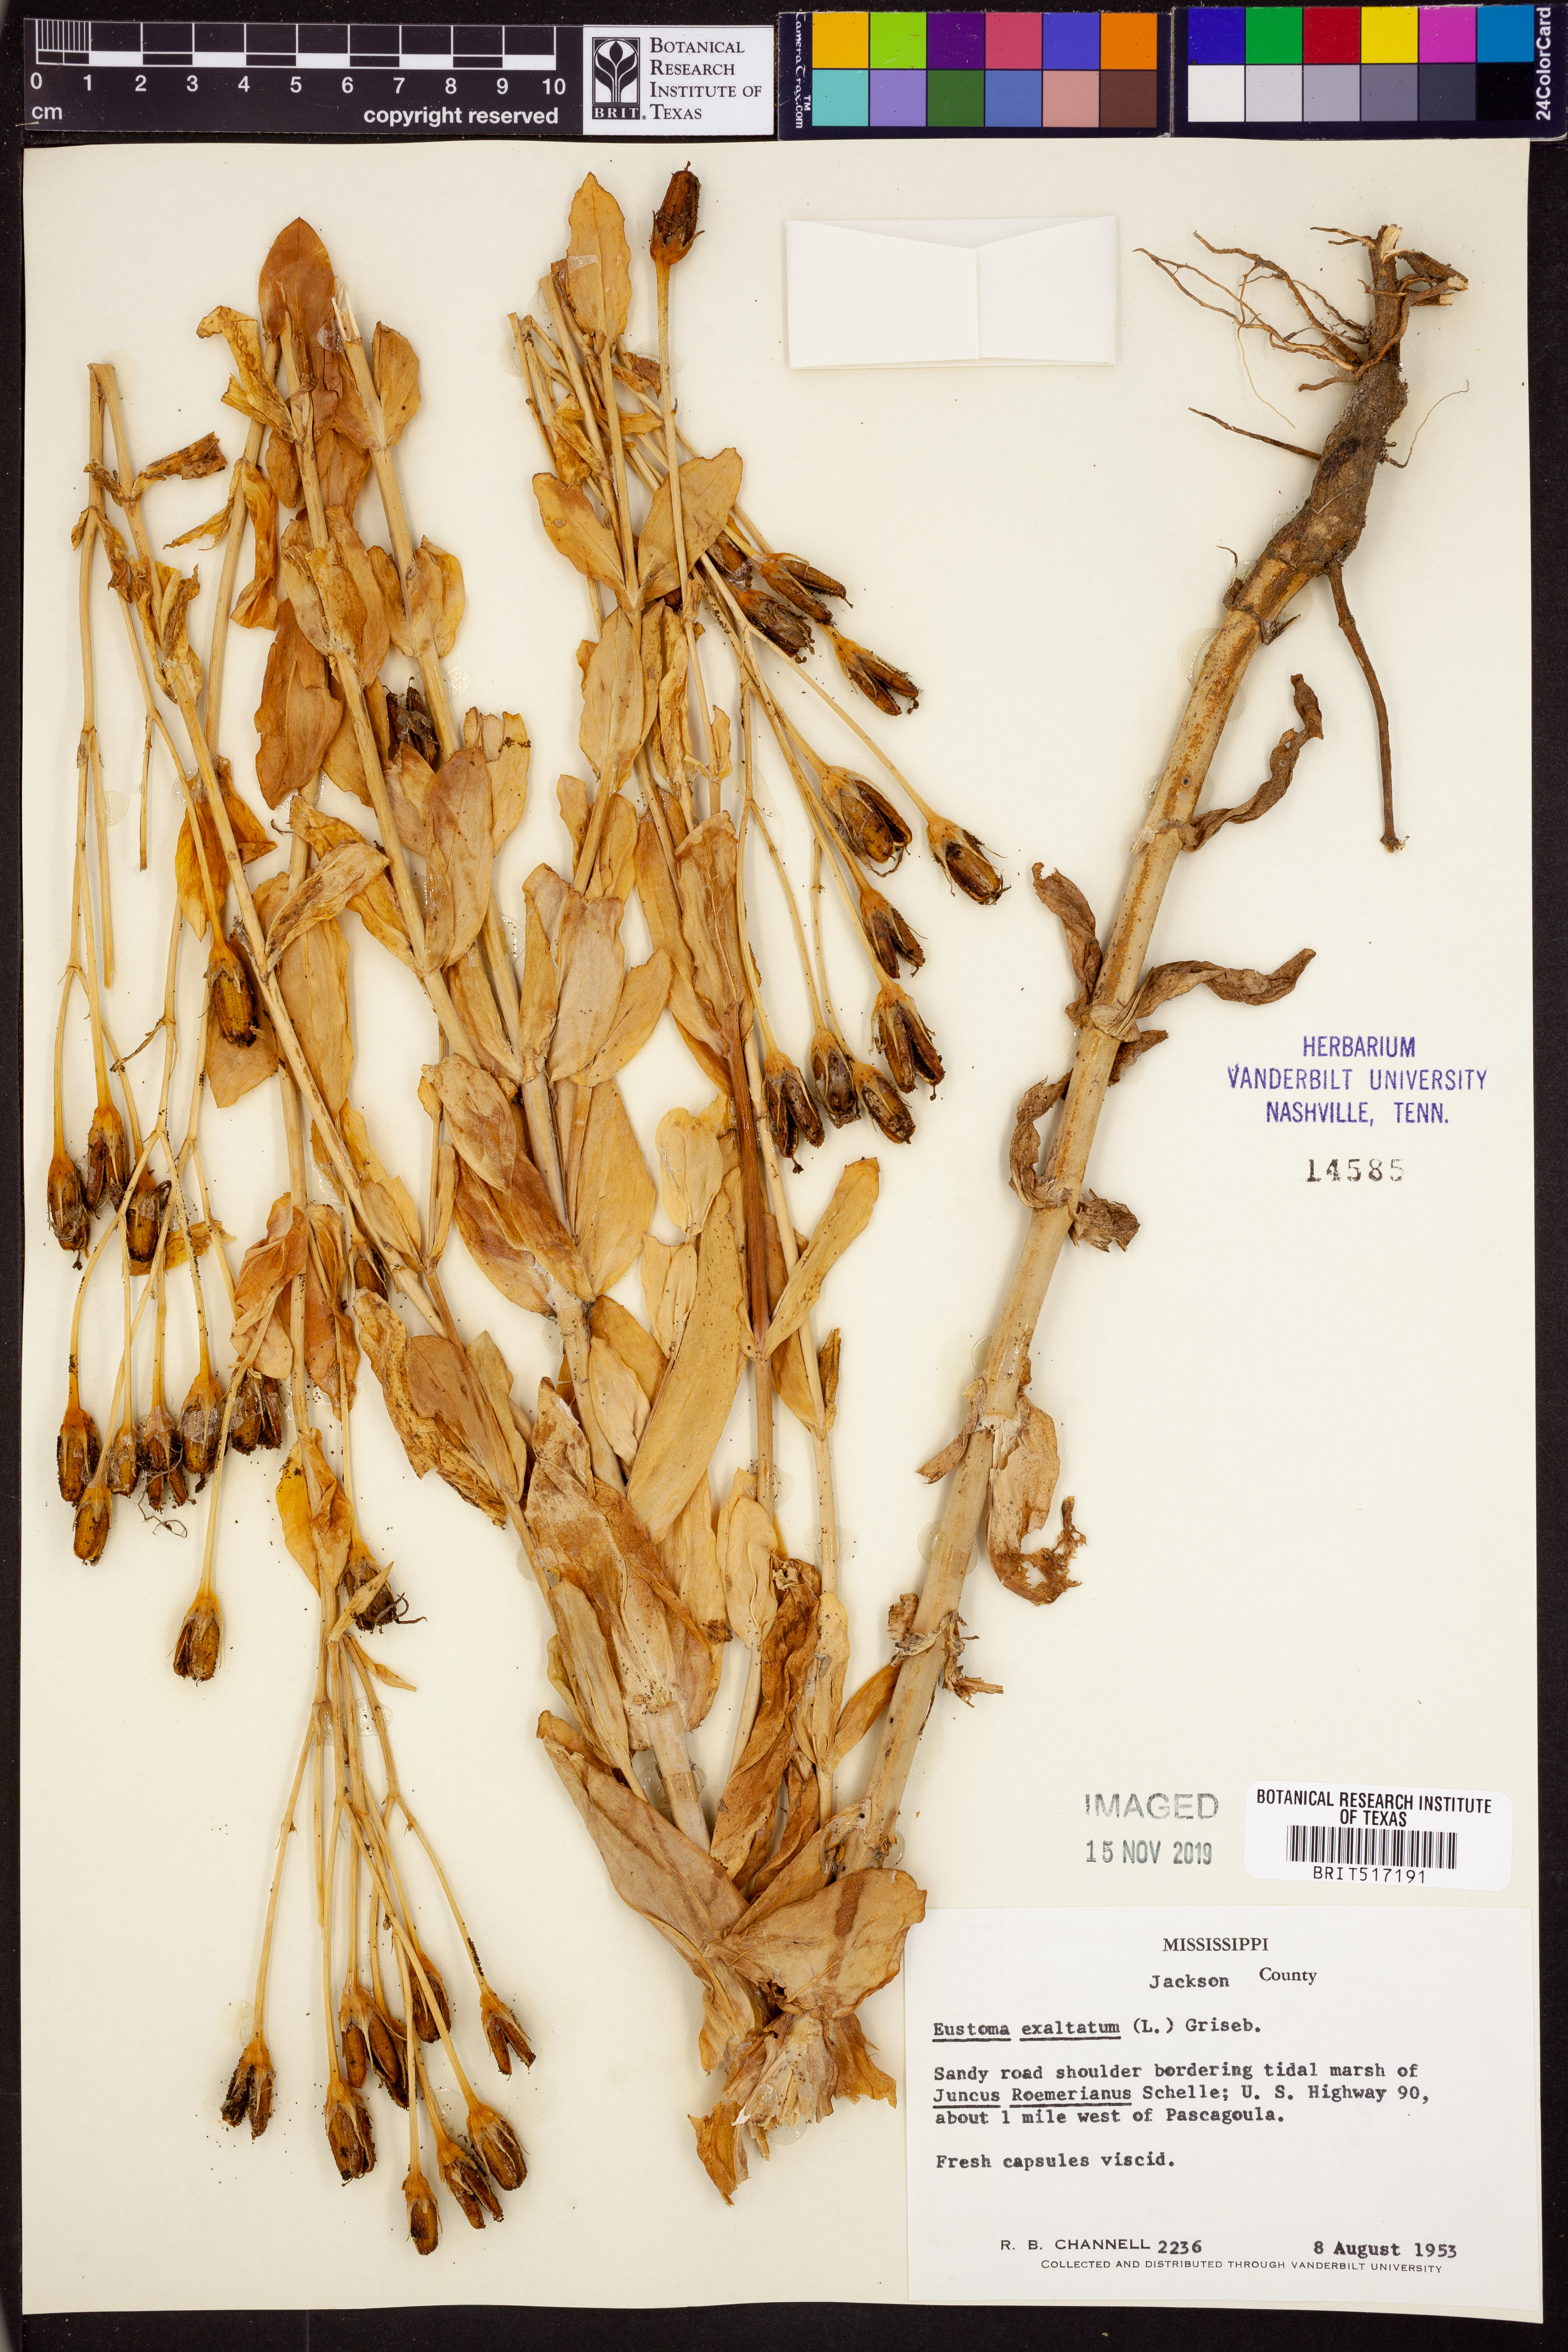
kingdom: Plantae
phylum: Tracheophyta
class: Magnoliopsida
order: Gentianales
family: Gentianaceae
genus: Eustoma
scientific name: Eustoma exaltatum
